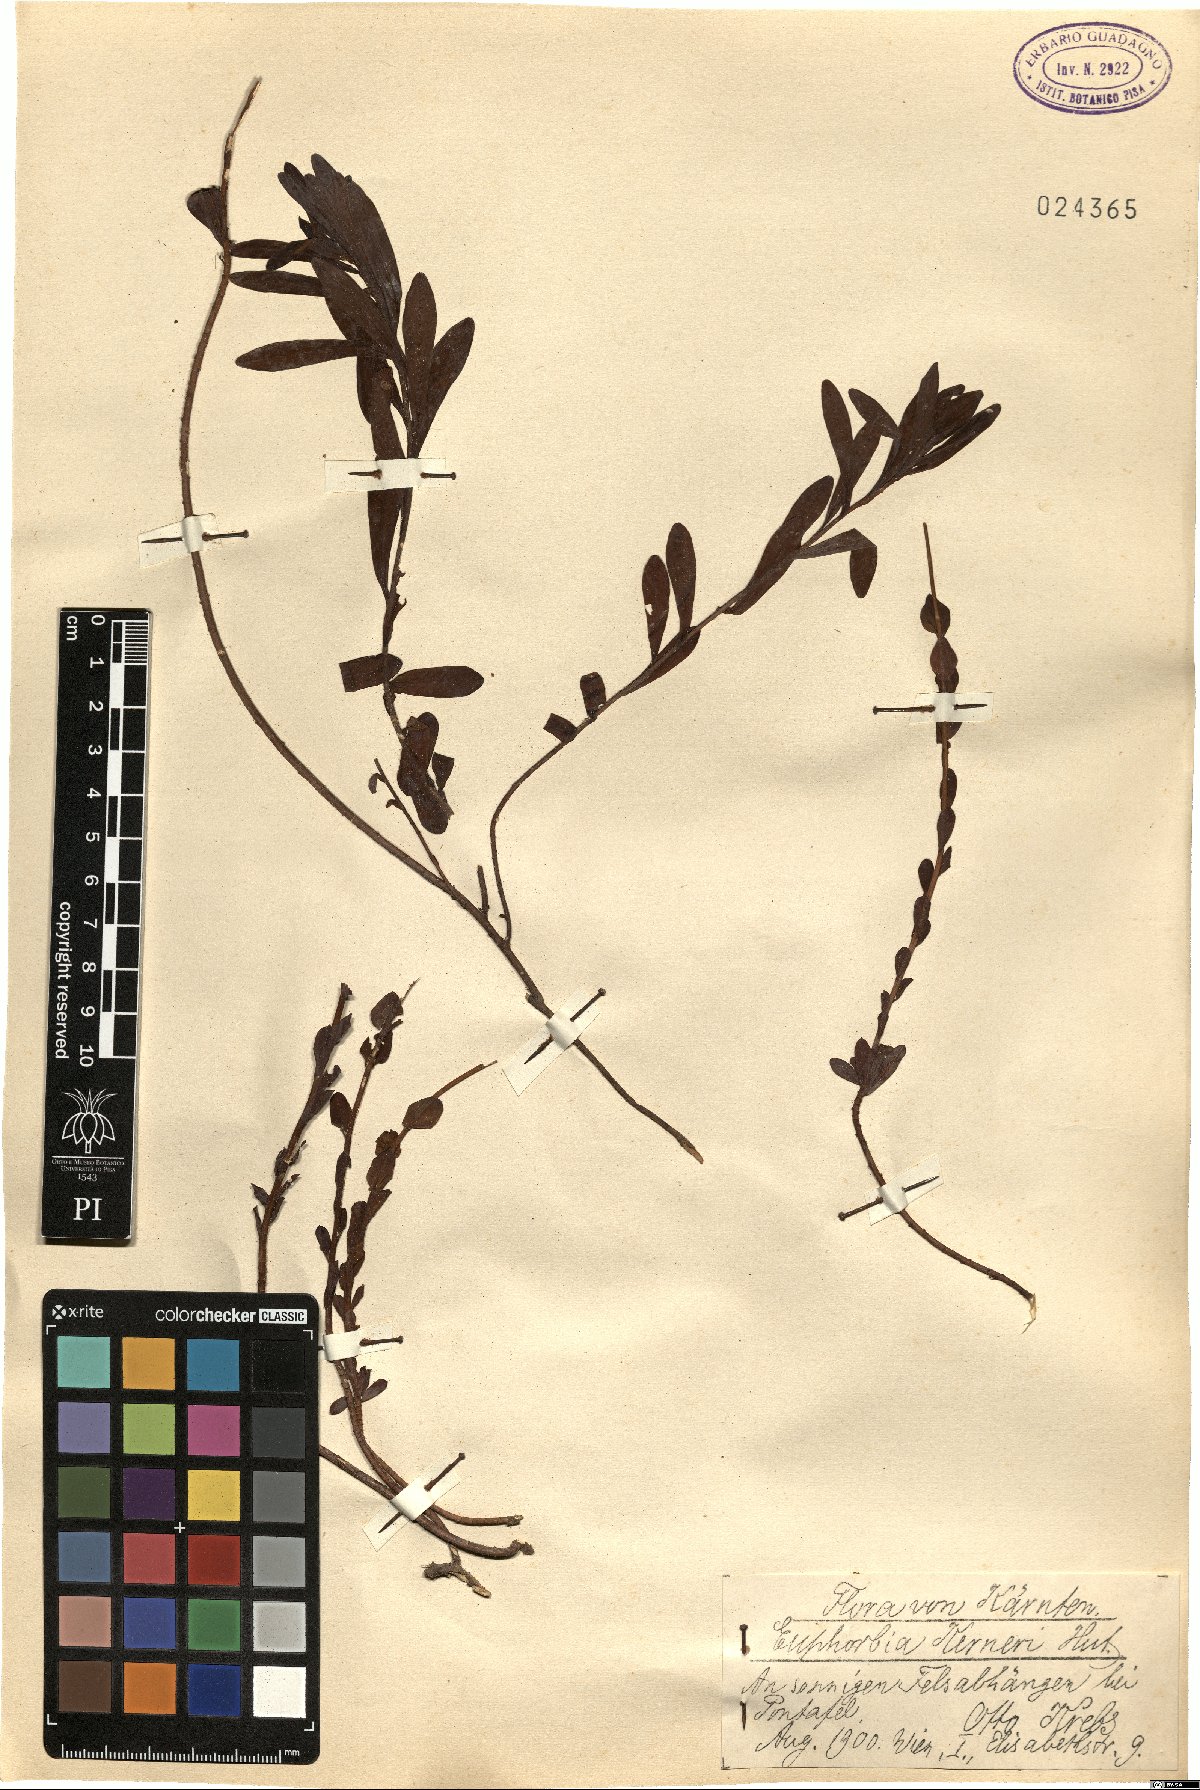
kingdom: Plantae
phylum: Tracheophyta
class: Magnoliopsida
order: Malpighiales
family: Euphorbiaceae
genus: Euphorbia
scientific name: Euphorbia kerneri
